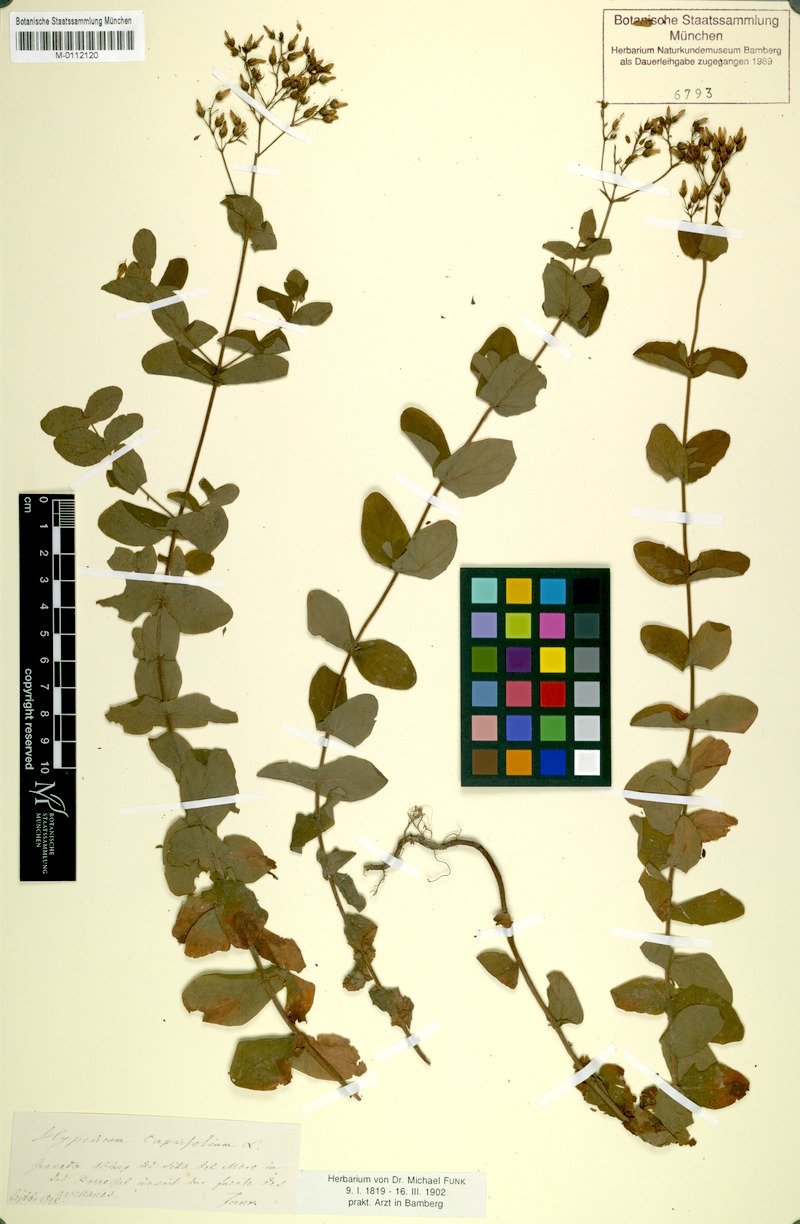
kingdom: Plantae
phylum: Tracheophyta
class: Magnoliopsida
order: Malpighiales
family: Hypericaceae
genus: Hypericum
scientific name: Hypericum caprifolium
